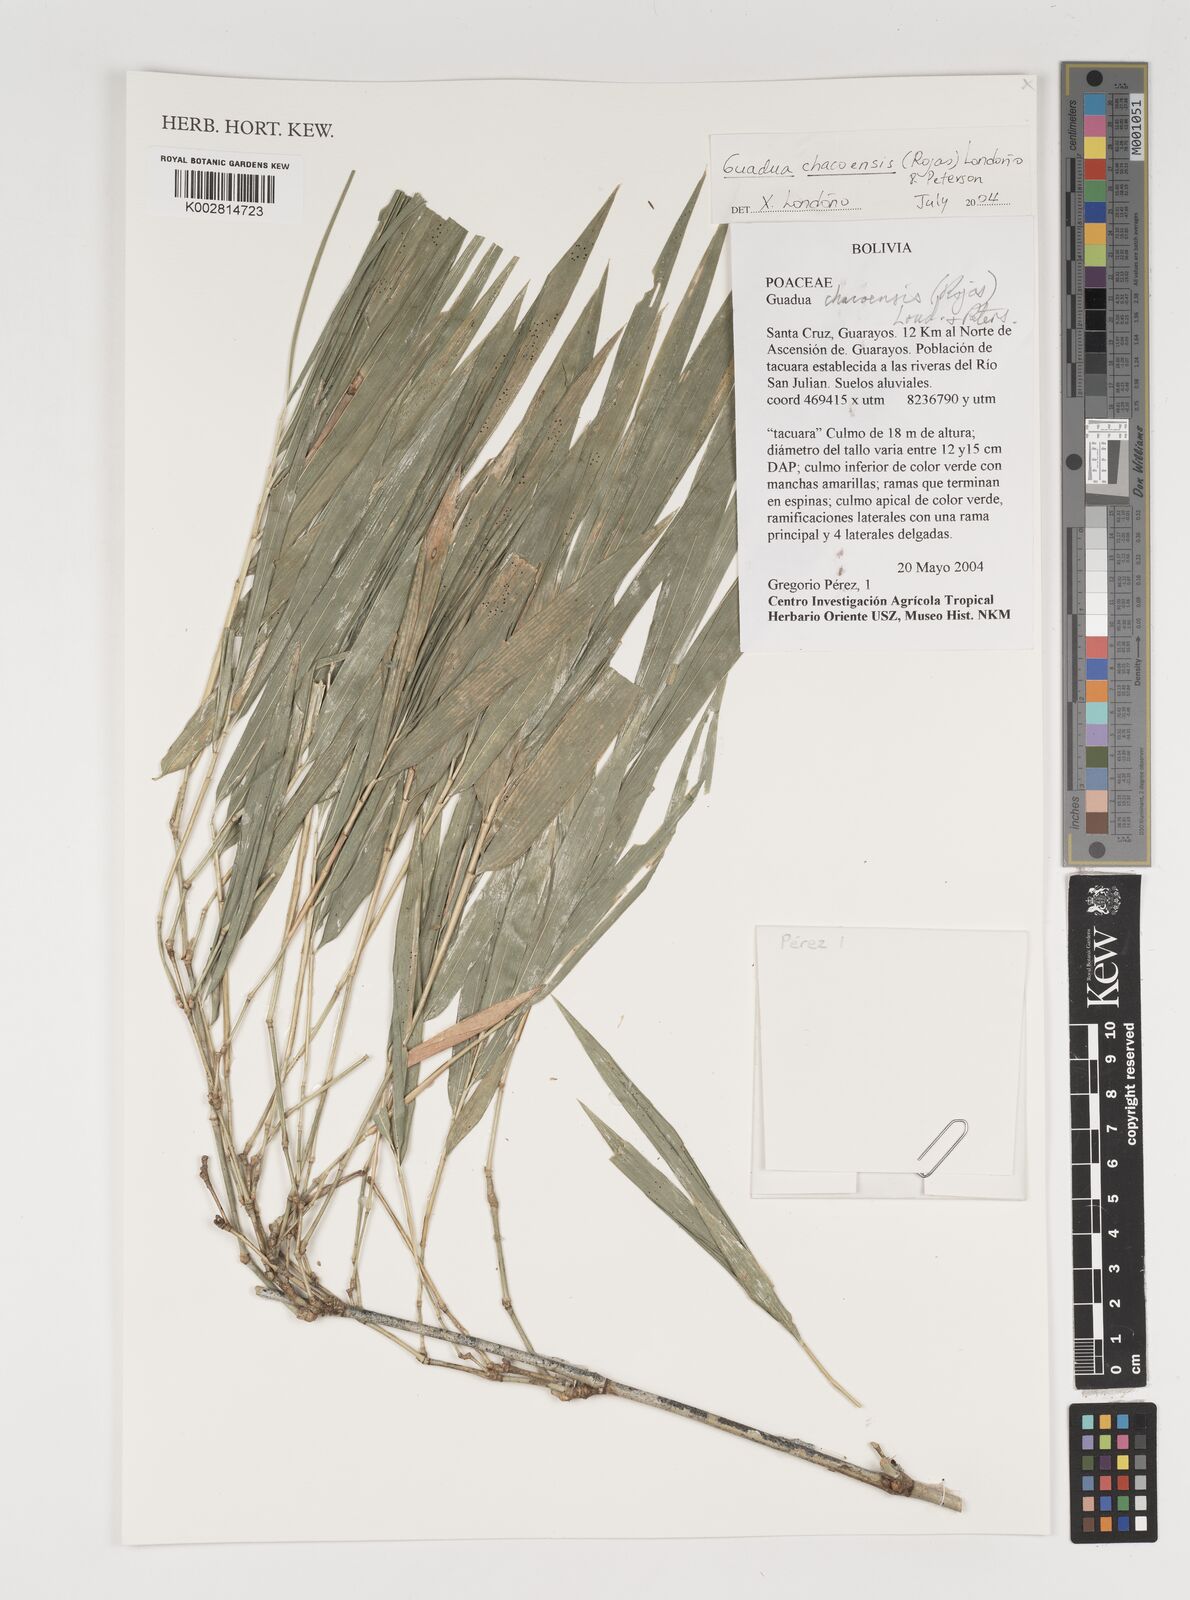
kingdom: Plantae
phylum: Tracheophyta
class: Liliopsida
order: Poales
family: Poaceae
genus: Guadua
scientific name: Guadua chacoensis
